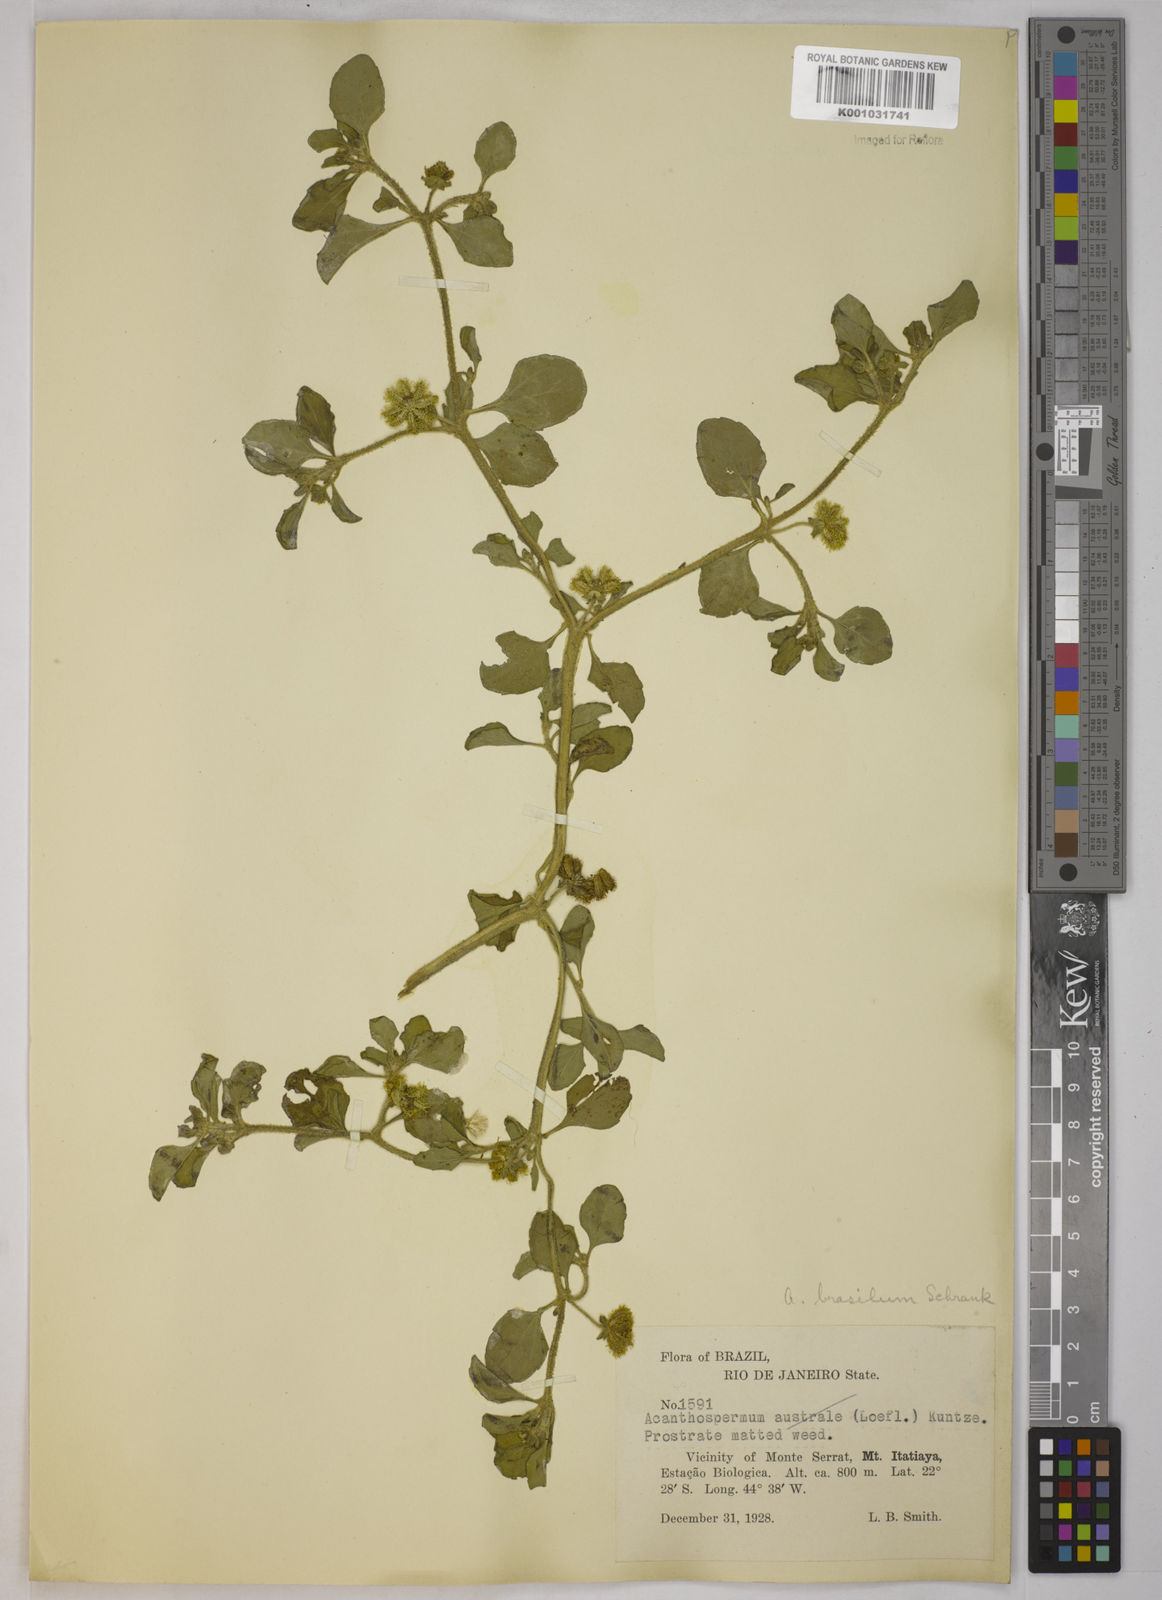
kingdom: Plantae
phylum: Tracheophyta
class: Magnoliopsida
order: Asterales
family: Asteraceae
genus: Acanthospermum
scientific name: Acanthospermum australe
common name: Paraguayan starbur
